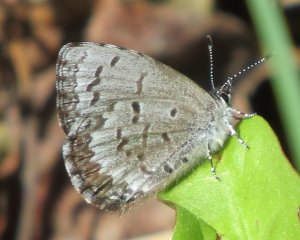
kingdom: Animalia
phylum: Arthropoda
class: Insecta
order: Lepidoptera
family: Lycaenidae
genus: Celastrina
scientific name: Celastrina lucia
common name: Northern Spring Azure
